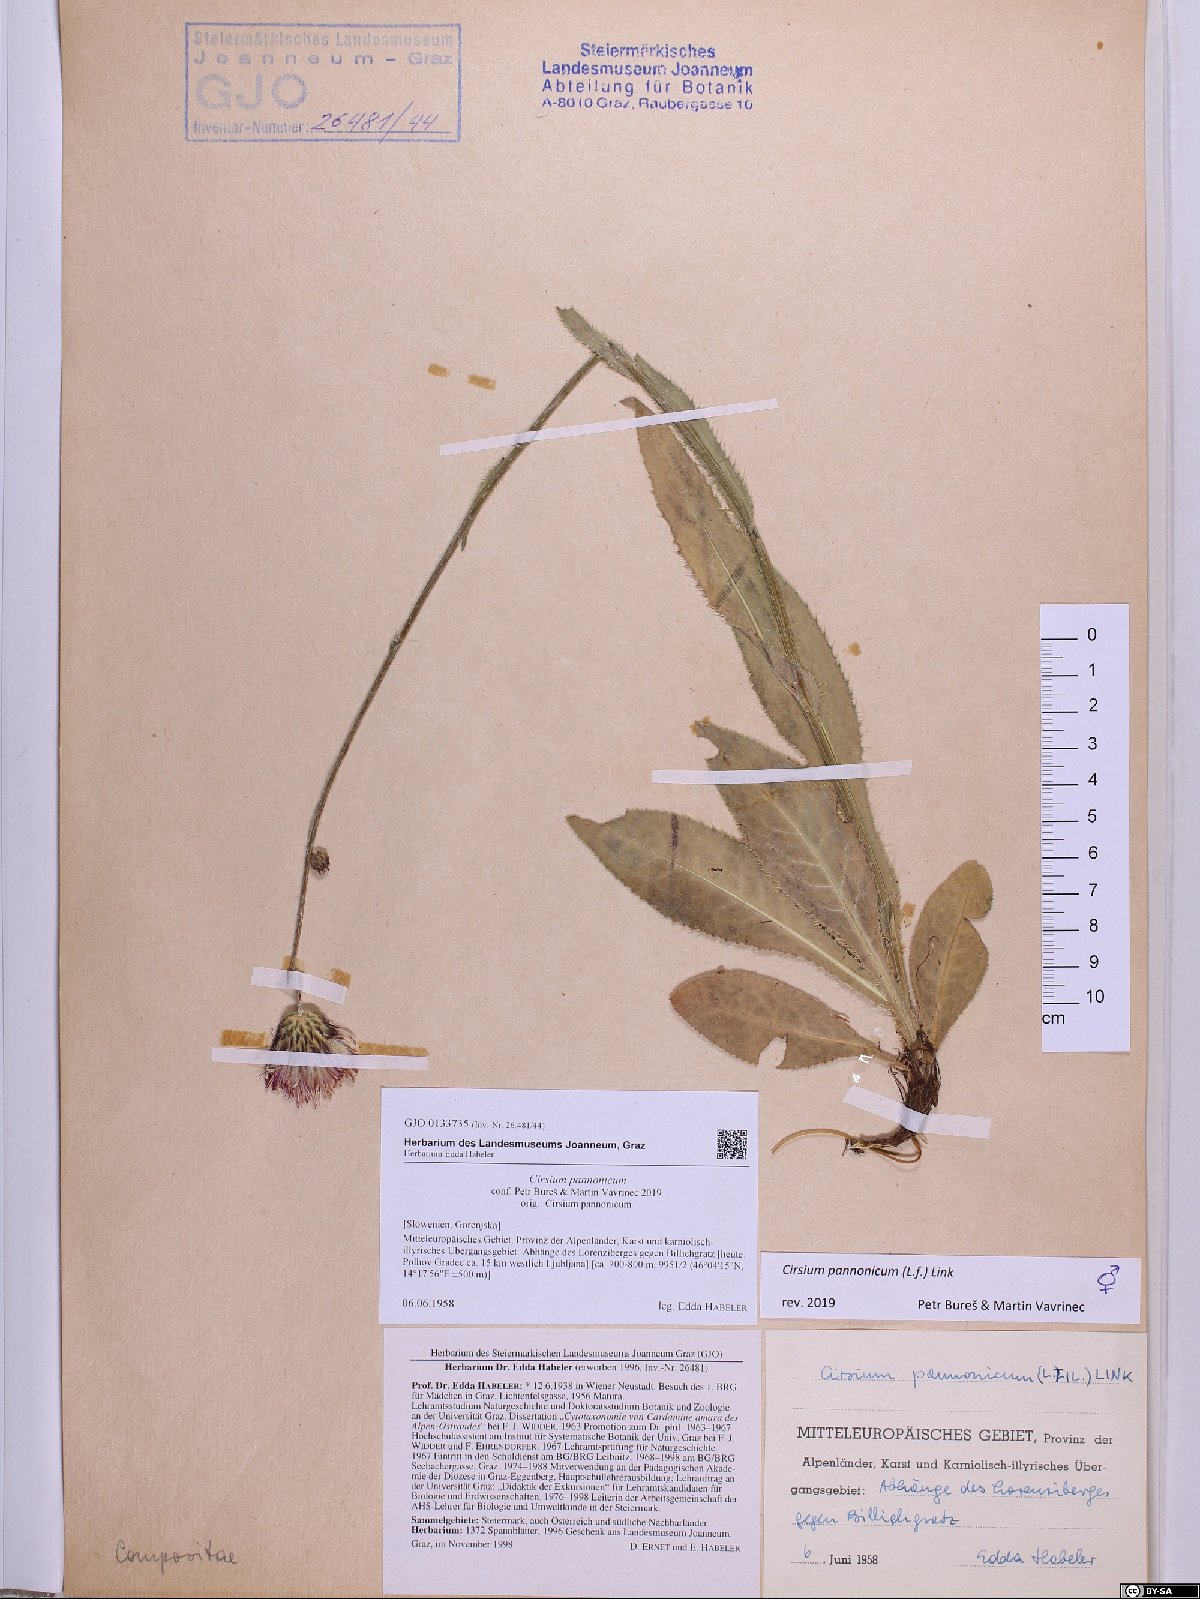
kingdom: Plantae
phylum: Tracheophyta
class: Magnoliopsida
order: Asterales
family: Asteraceae
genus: Cirsium
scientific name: Cirsium pannonicum
